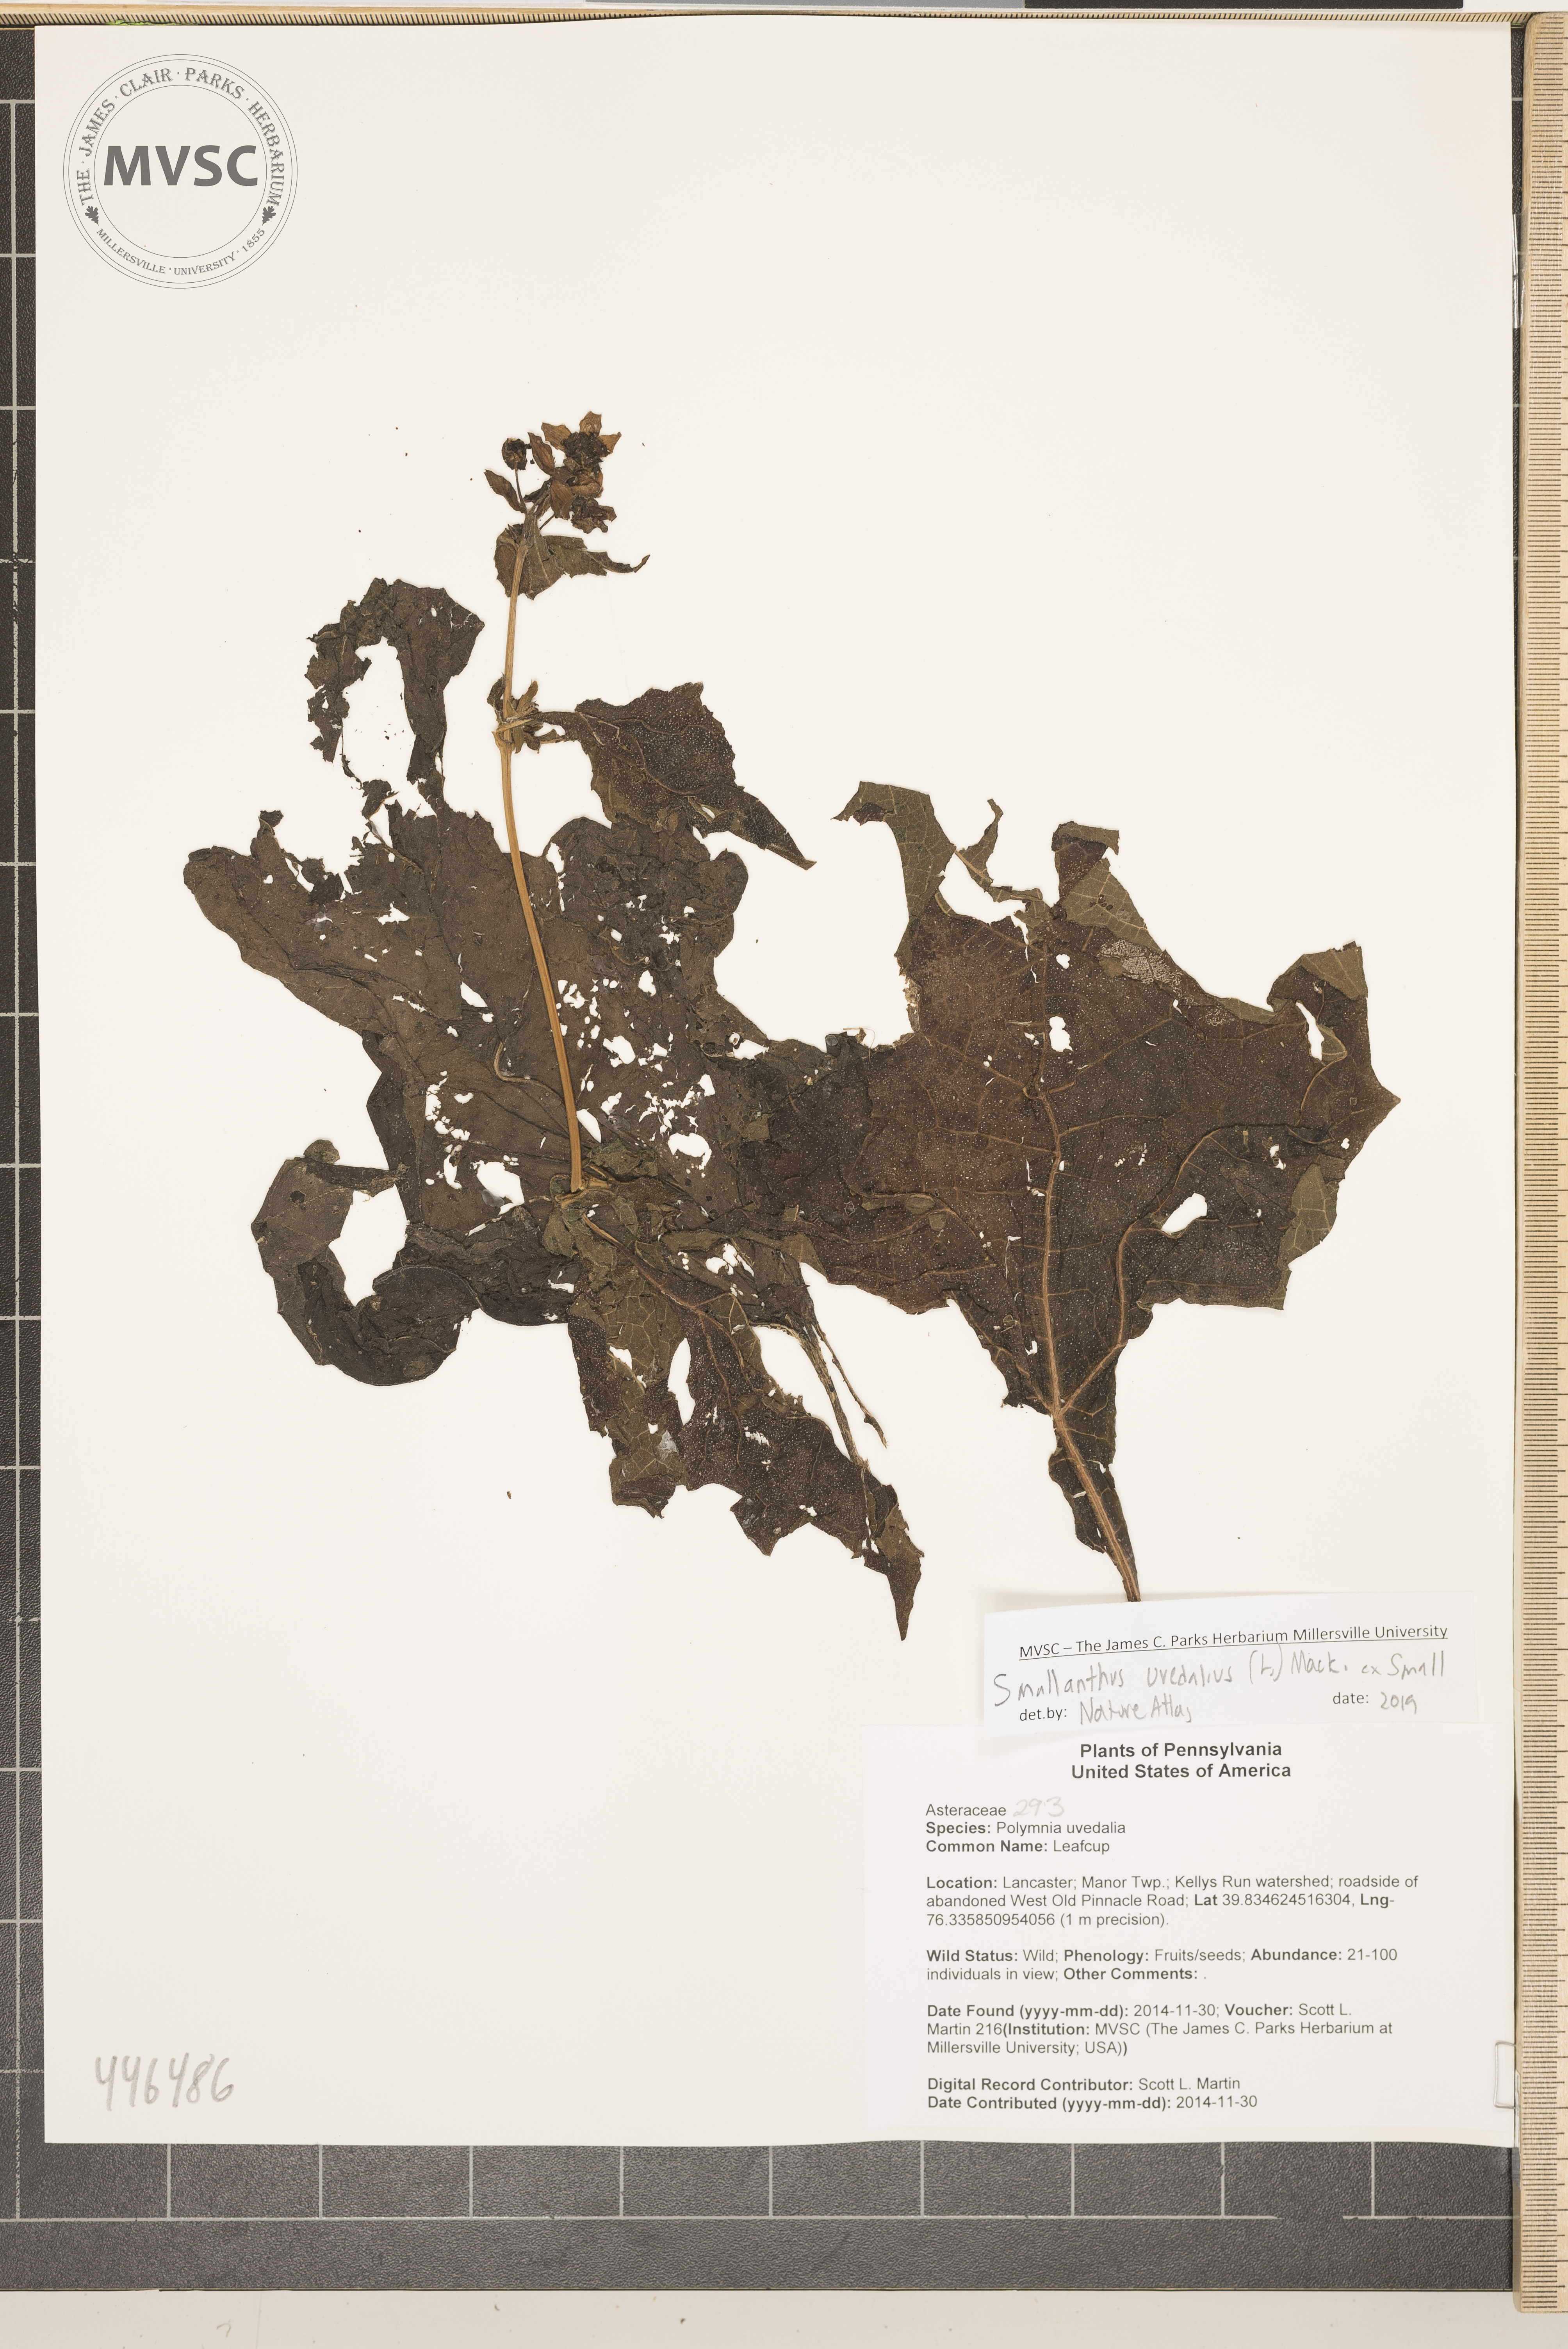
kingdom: Plantae
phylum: Tracheophyta
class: Magnoliopsida
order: Asterales
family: Asteraceae
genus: Smallanthus
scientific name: Smallanthus uvedalia
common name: Leafcup
